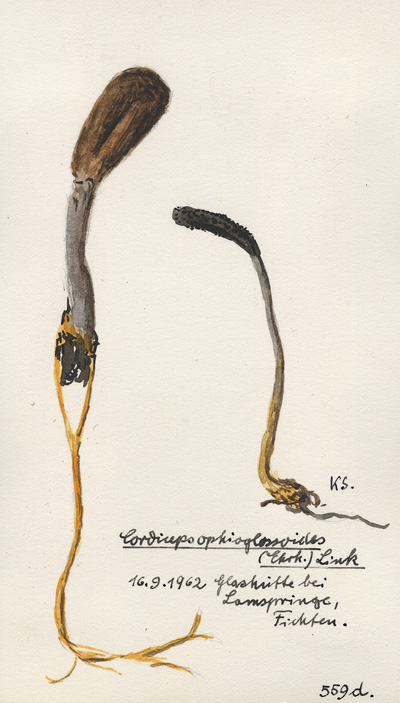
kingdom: Fungi
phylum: Ascomycota
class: Sordariomycetes
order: Hypocreales
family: Ophiocordycipitaceae
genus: Tolypocladium
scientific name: Tolypocladium ophioglossoides
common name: Snaketongue truffleclub
